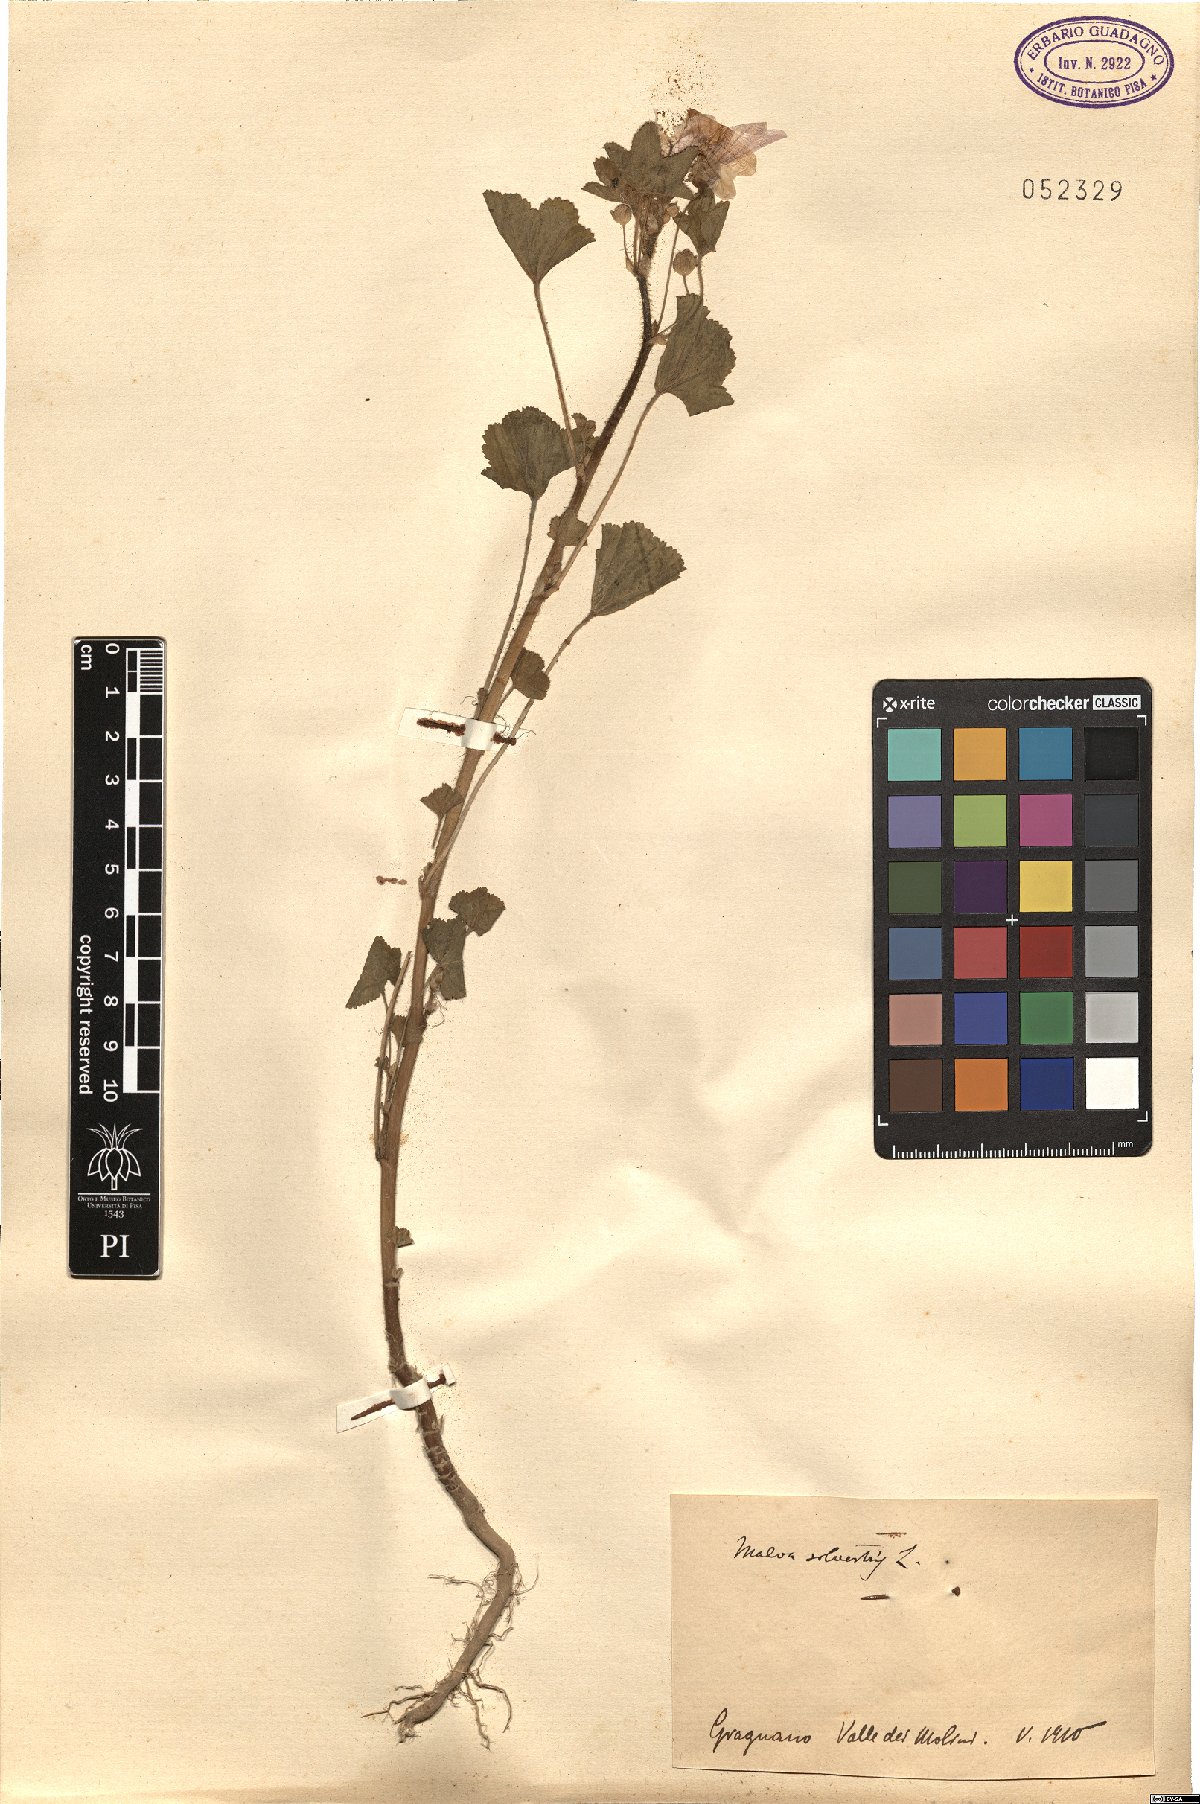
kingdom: Plantae
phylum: Tracheophyta
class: Magnoliopsida
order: Malvales
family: Malvaceae
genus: Malva
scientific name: Malva sylvestris
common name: Common mallow
